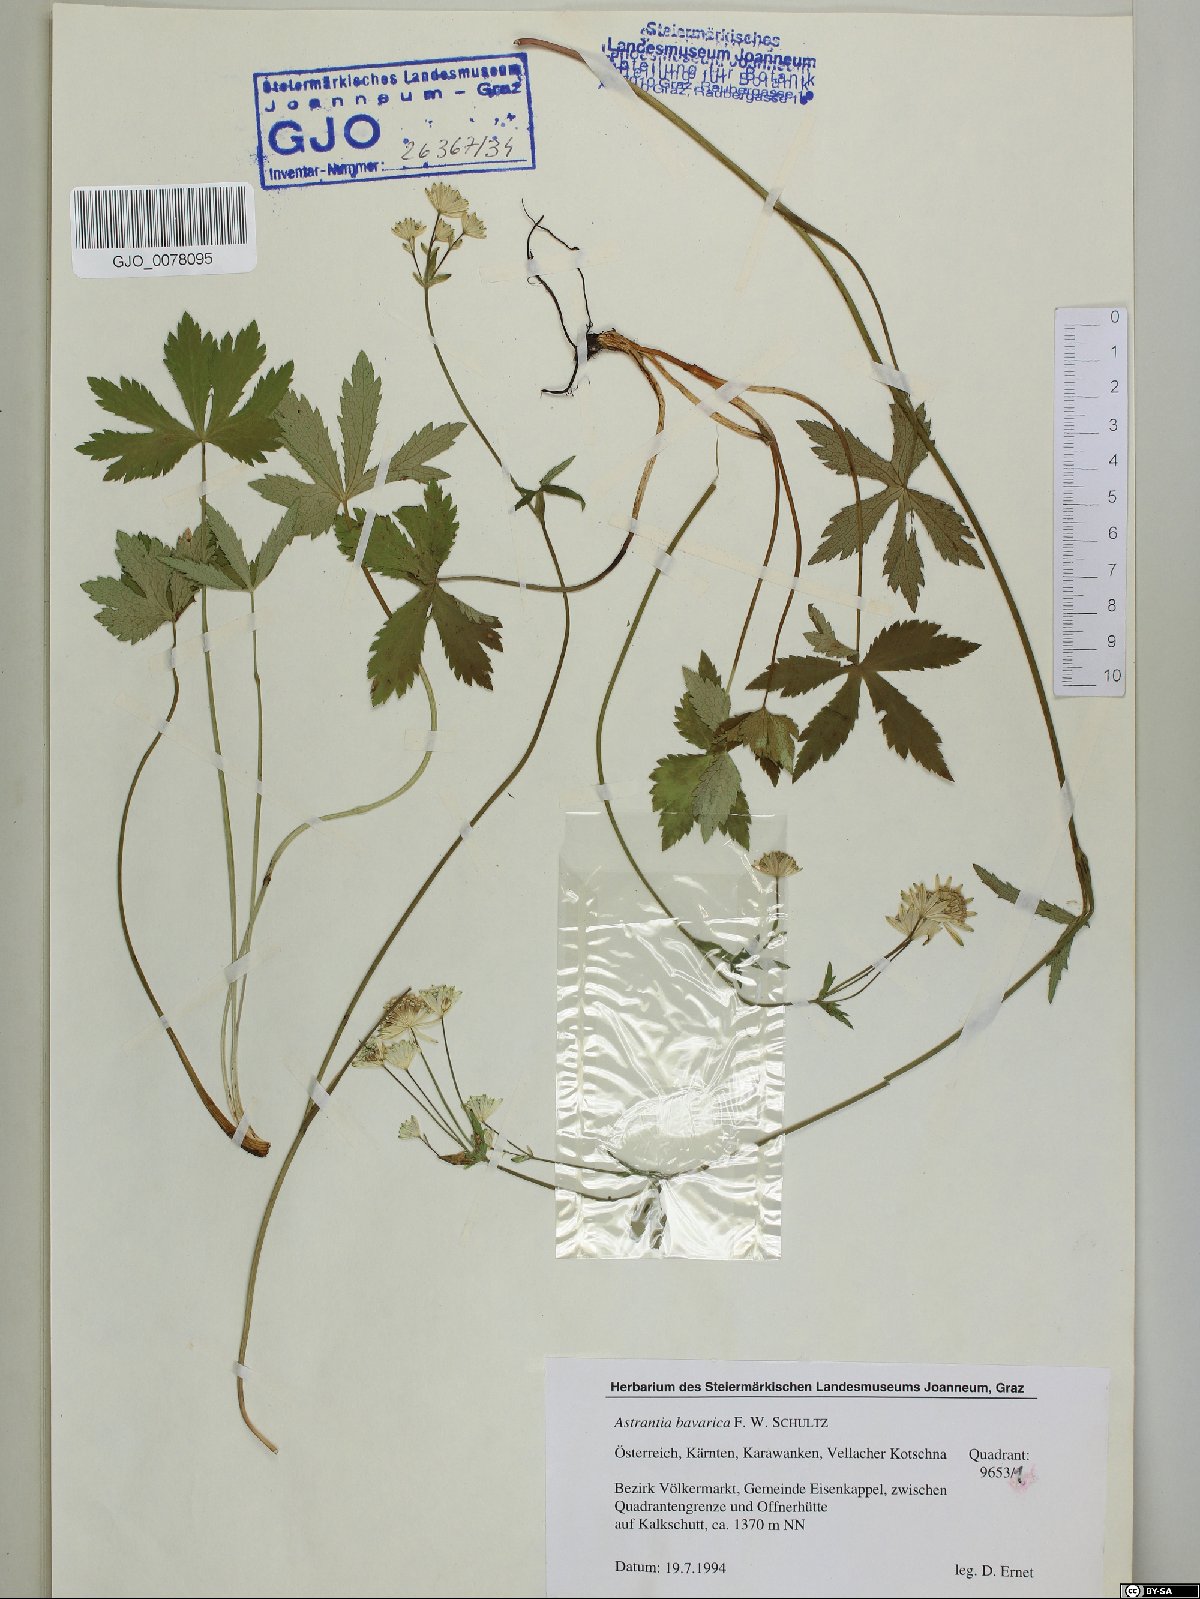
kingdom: Plantae
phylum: Tracheophyta
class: Magnoliopsida
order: Apiales
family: Apiaceae
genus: Astrantia
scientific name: Astrantia bavarica
